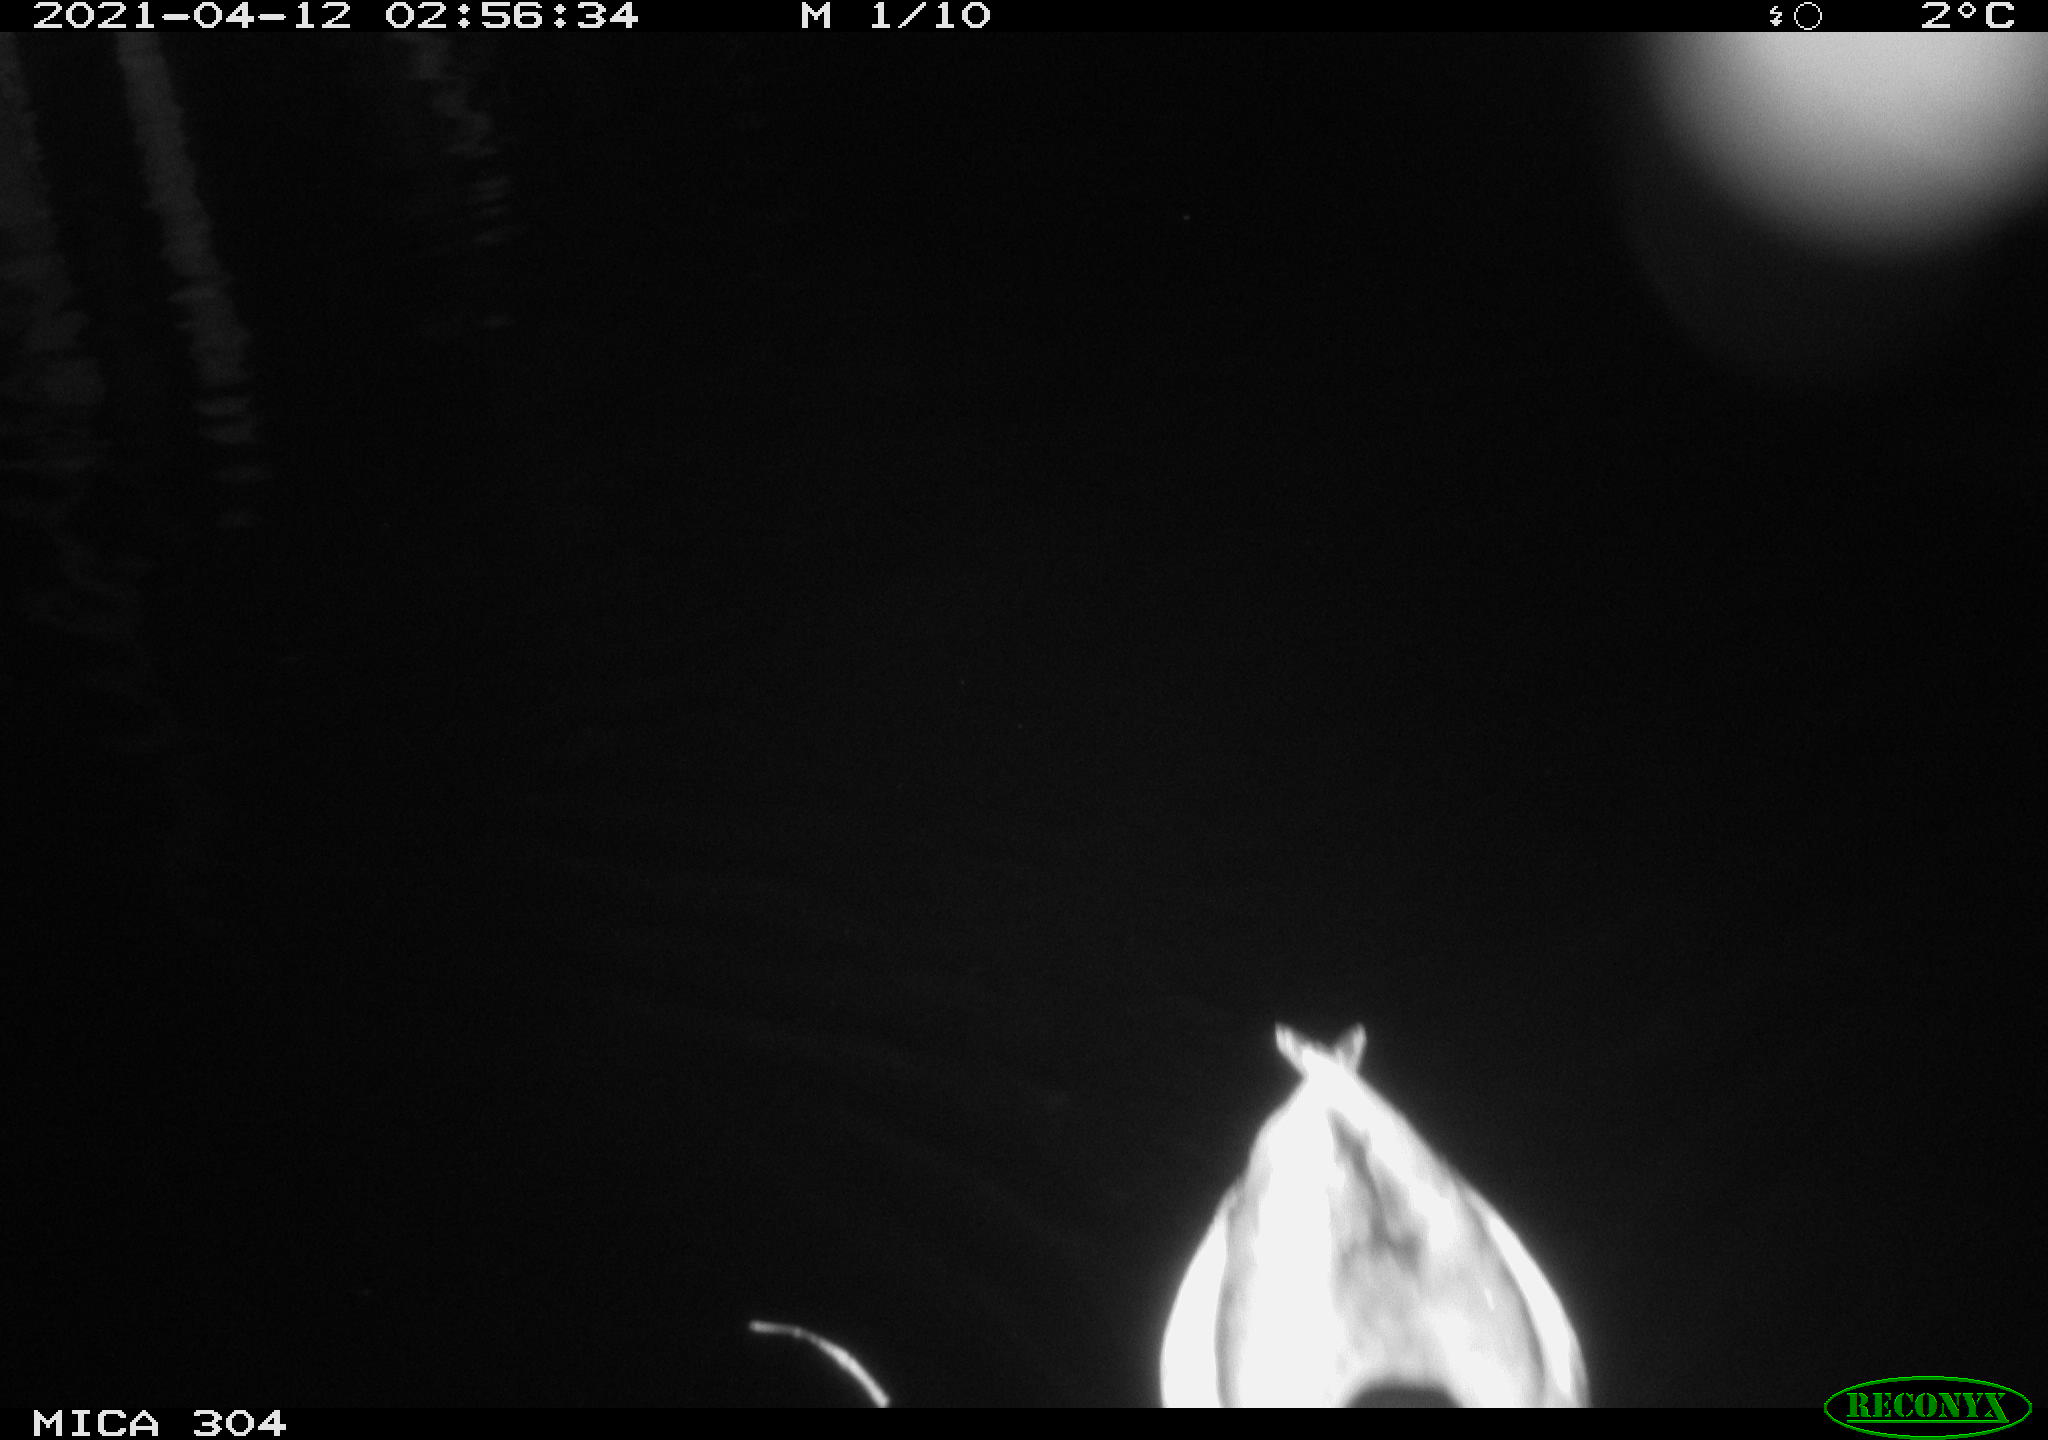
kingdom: Animalia
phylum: Chordata
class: Aves
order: Anseriformes
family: Anatidae
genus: Anas
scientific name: Anas
